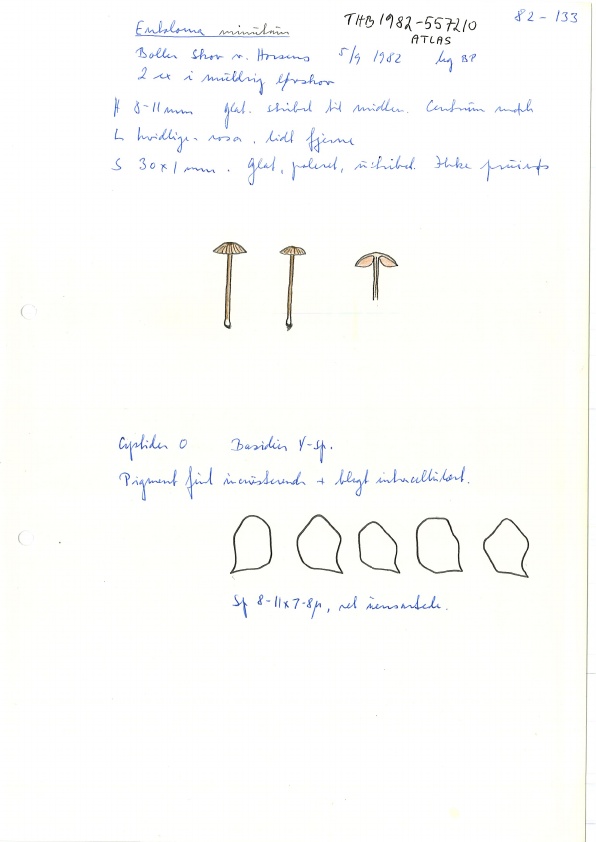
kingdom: Fungi
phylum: Basidiomycota
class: Agaricomycetes
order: Agaricales
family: Entolomataceae
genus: Entoloma
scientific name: Entoloma minutum
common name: liden rødblad
